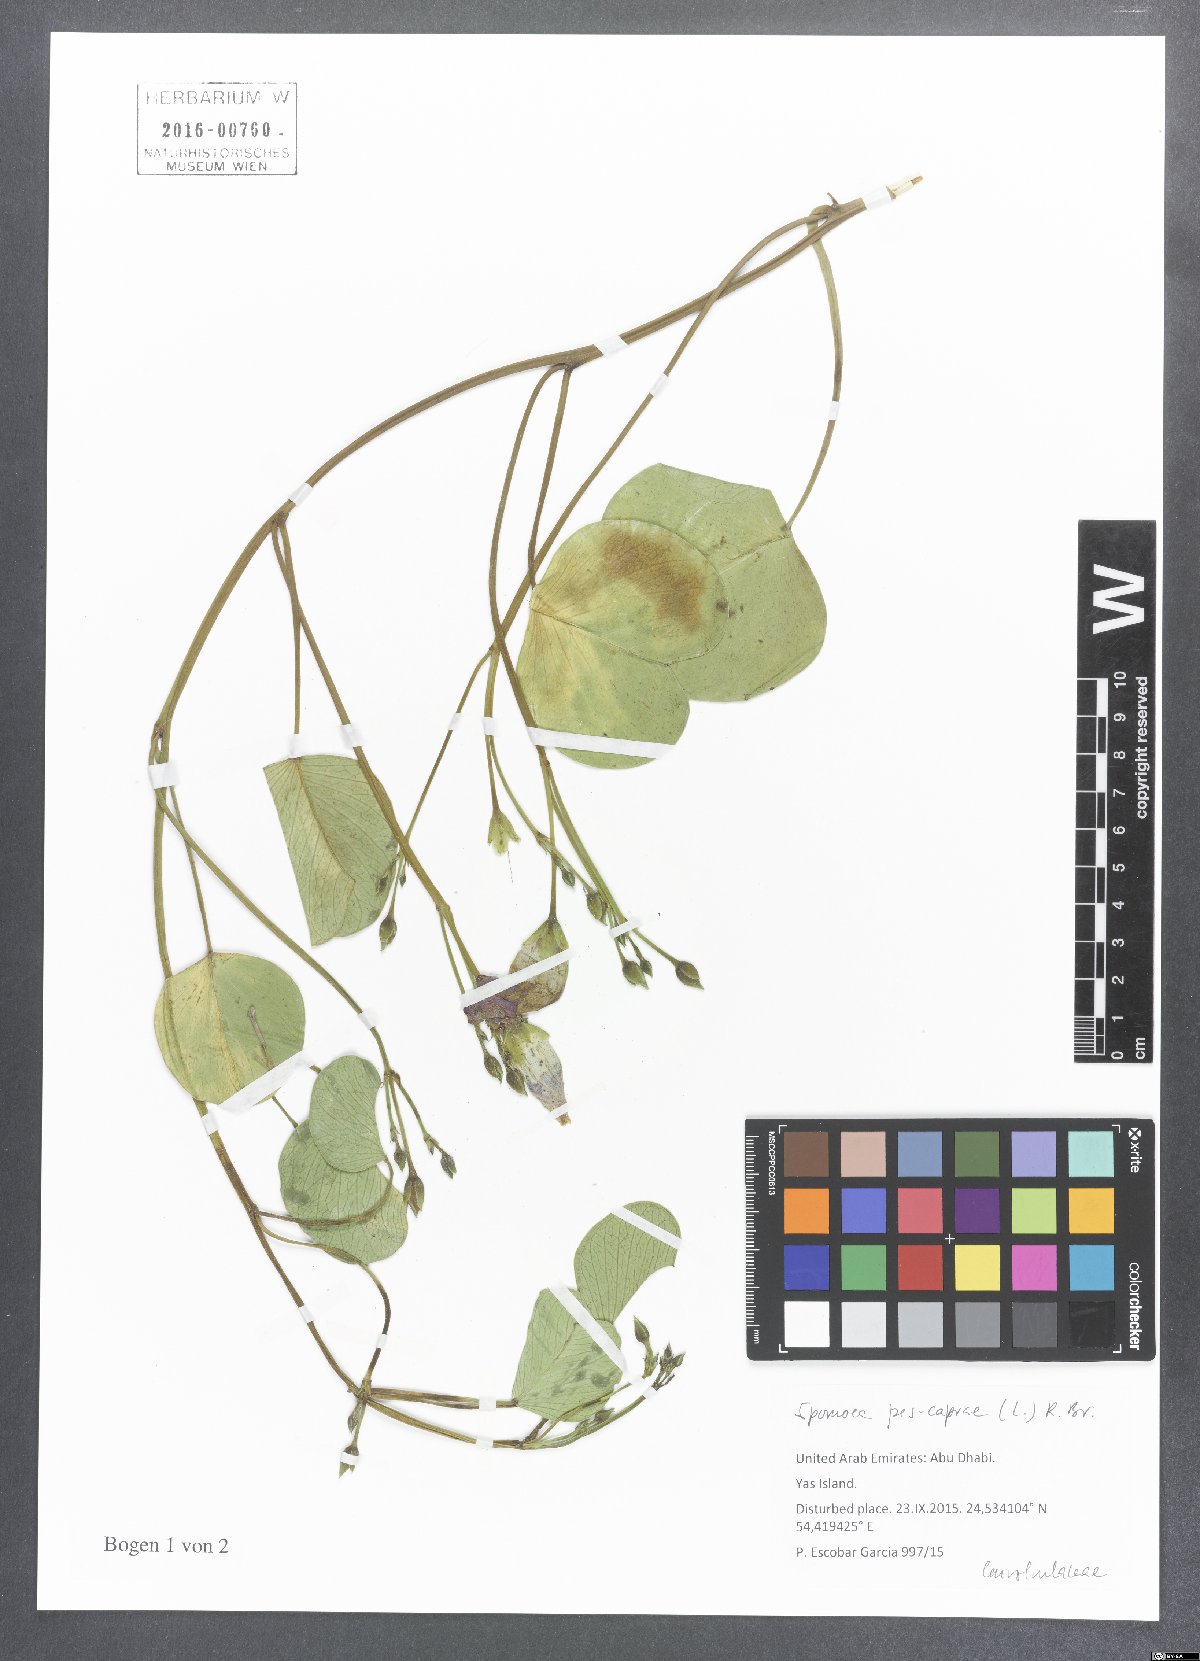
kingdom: Plantae
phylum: Tracheophyta
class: Magnoliopsida
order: Solanales
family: Convolvulaceae
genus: Ipomoea
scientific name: Ipomoea pes-caprae
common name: Beach morning glory
